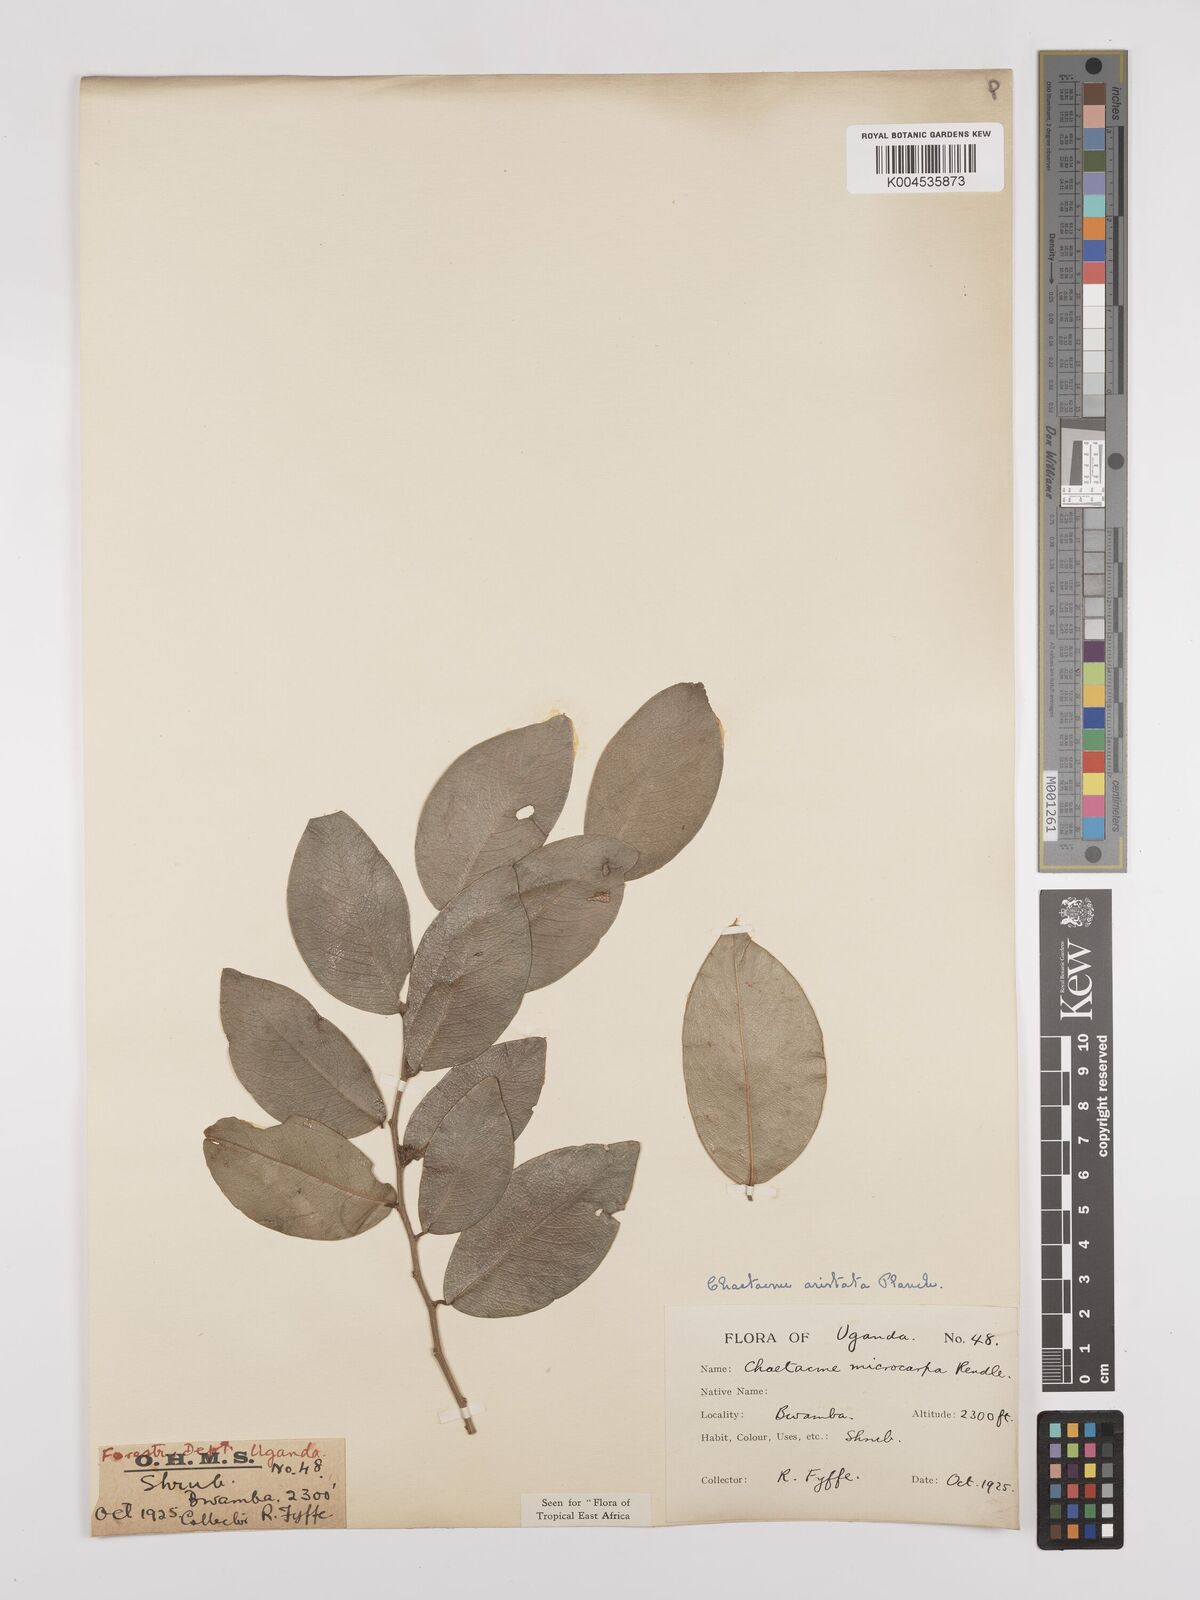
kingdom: Plantae
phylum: Tracheophyta
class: Magnoliopsida
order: Rosales
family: Cannabaceae
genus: Chaetachme
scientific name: Chaetachme aristata
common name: Thorny elm
